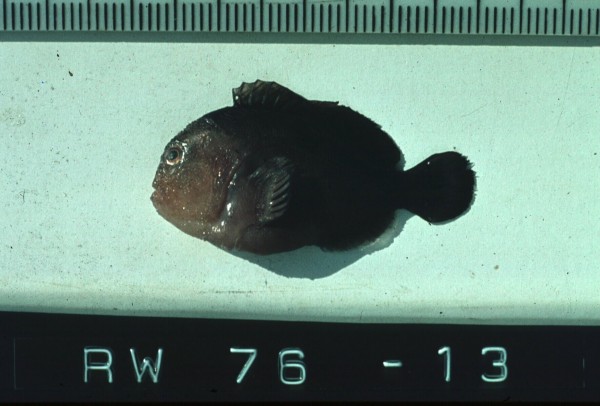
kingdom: Animalia
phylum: Chordata
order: Scorpaeniformes
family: Scorpaenidae
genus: Caracanthus
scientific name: Caracanthus unipinna
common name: Coral croucher
